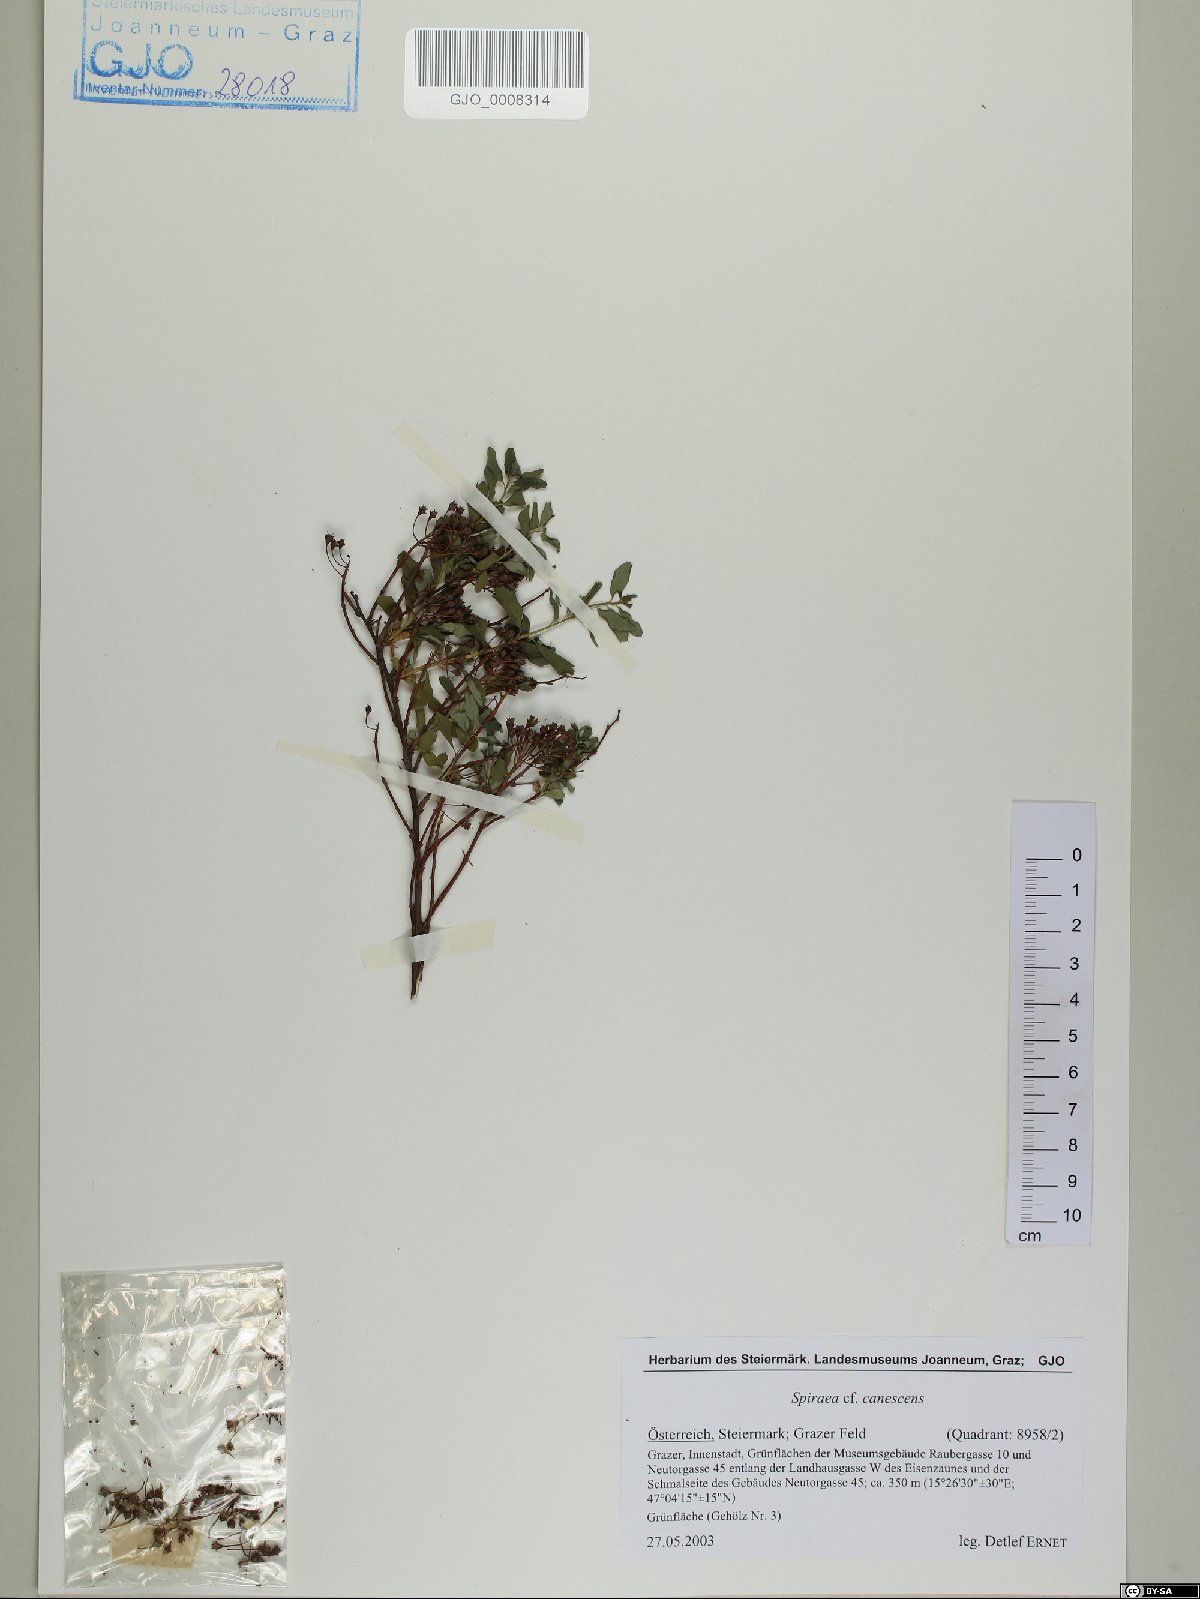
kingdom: Plantae
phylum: Tracheophyta
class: Magnoliopsida
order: Rosales
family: Rosaceae
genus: Spiraea
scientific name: Spiraea canescens
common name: Himalayan spiraea
